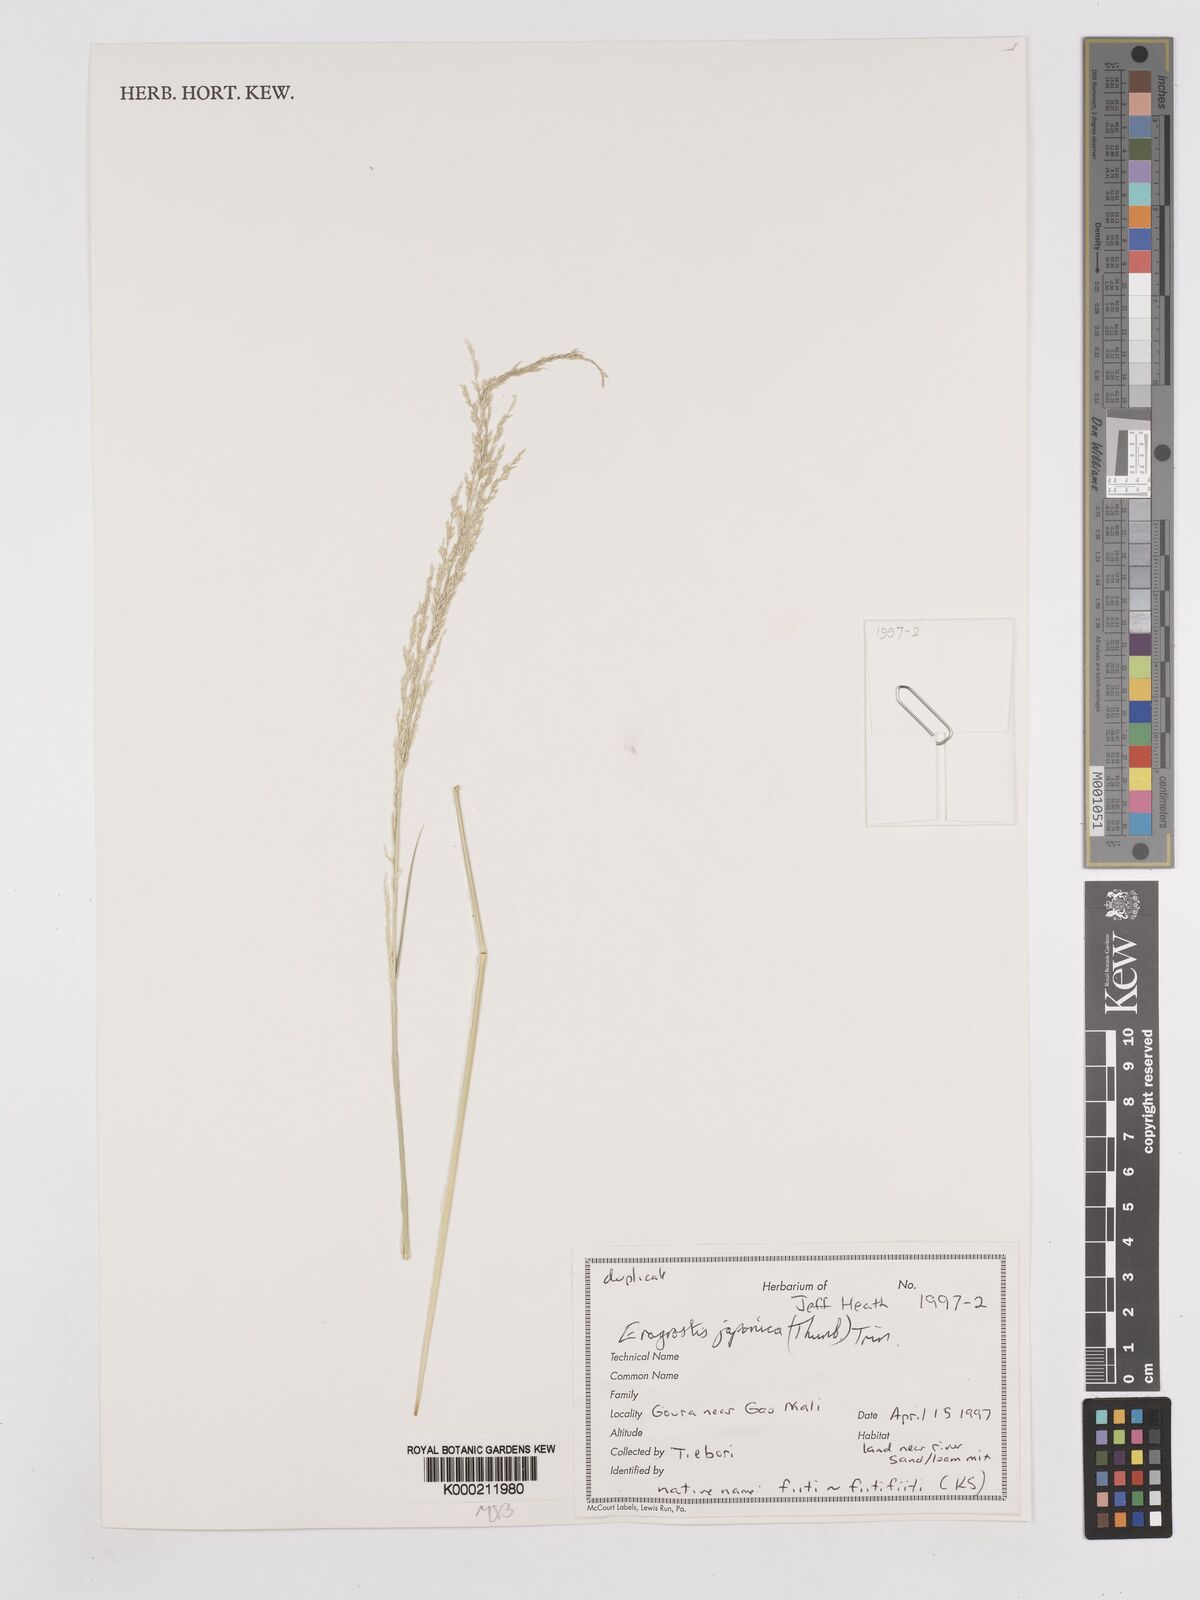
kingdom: Plantae
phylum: Tracheophyta
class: Liliopsida
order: Poales
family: Poaceae
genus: Eragrostis
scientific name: Eragrostis japonica
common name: Pond lovegrass
